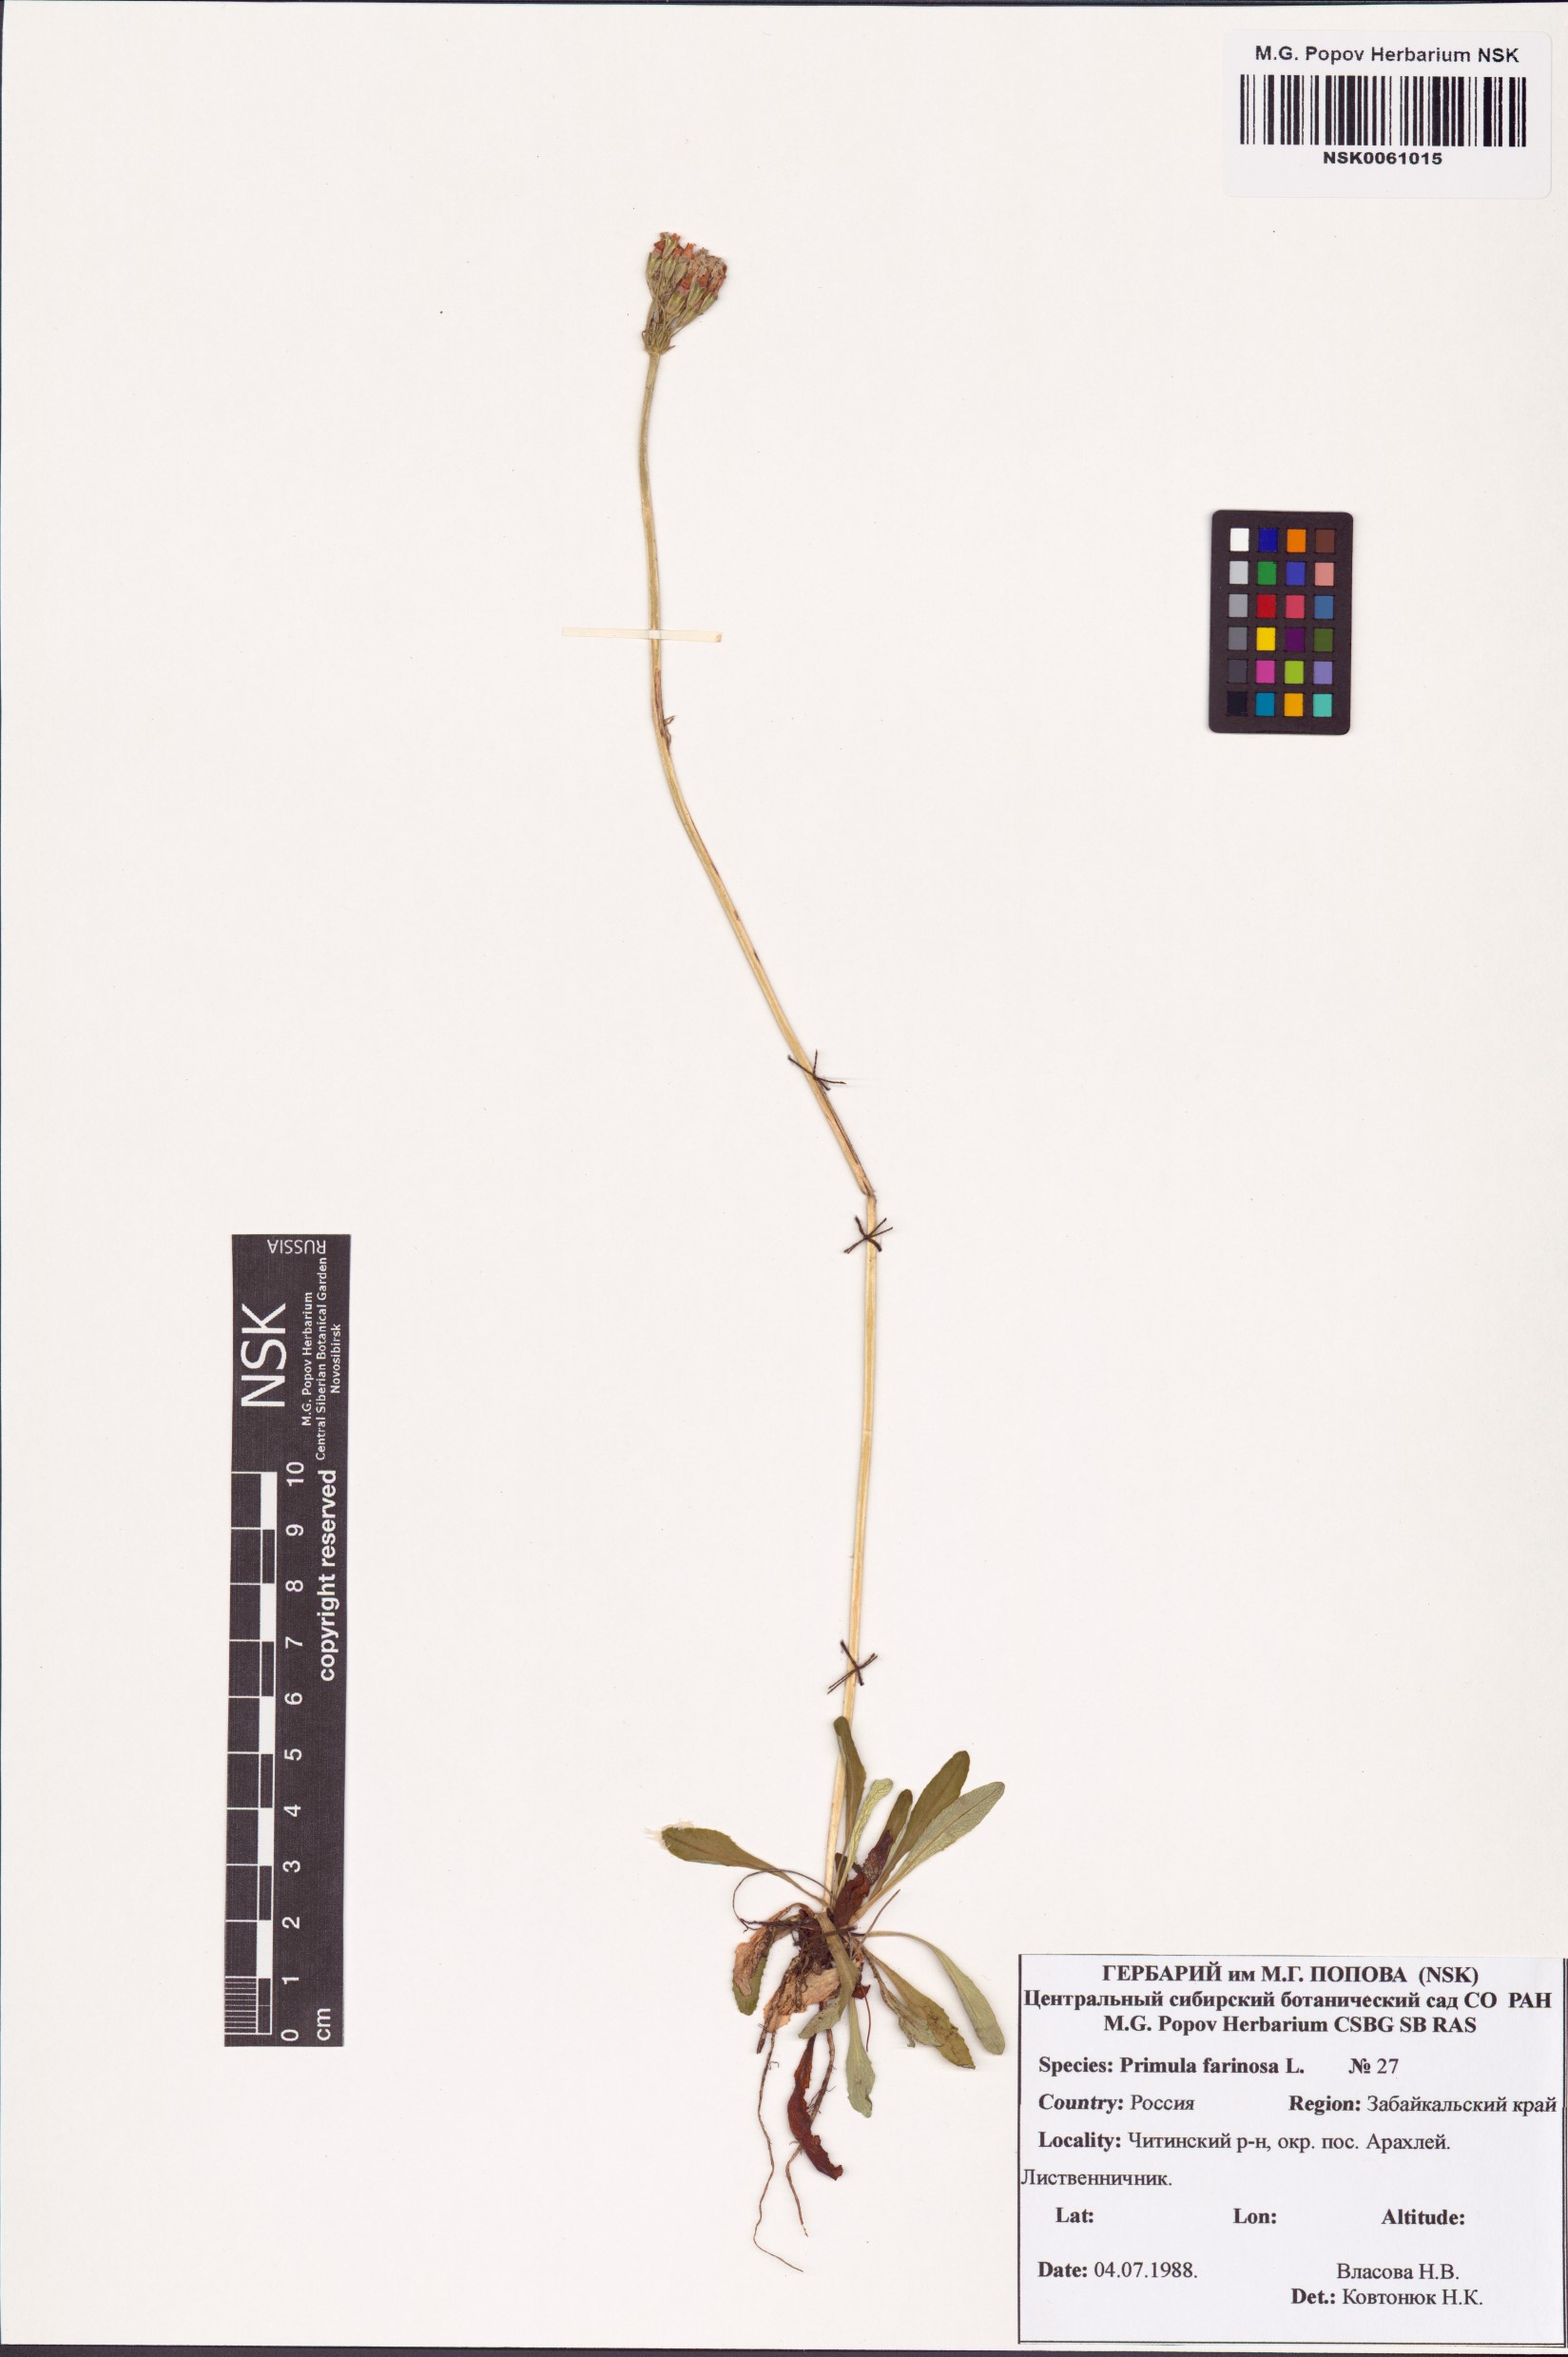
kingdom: Plantae
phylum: Tracheophyta
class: Magnoliopsida
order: Ericales
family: Primulaceae
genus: Primula
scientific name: Primula farinosa
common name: Bird's-eye primrose
